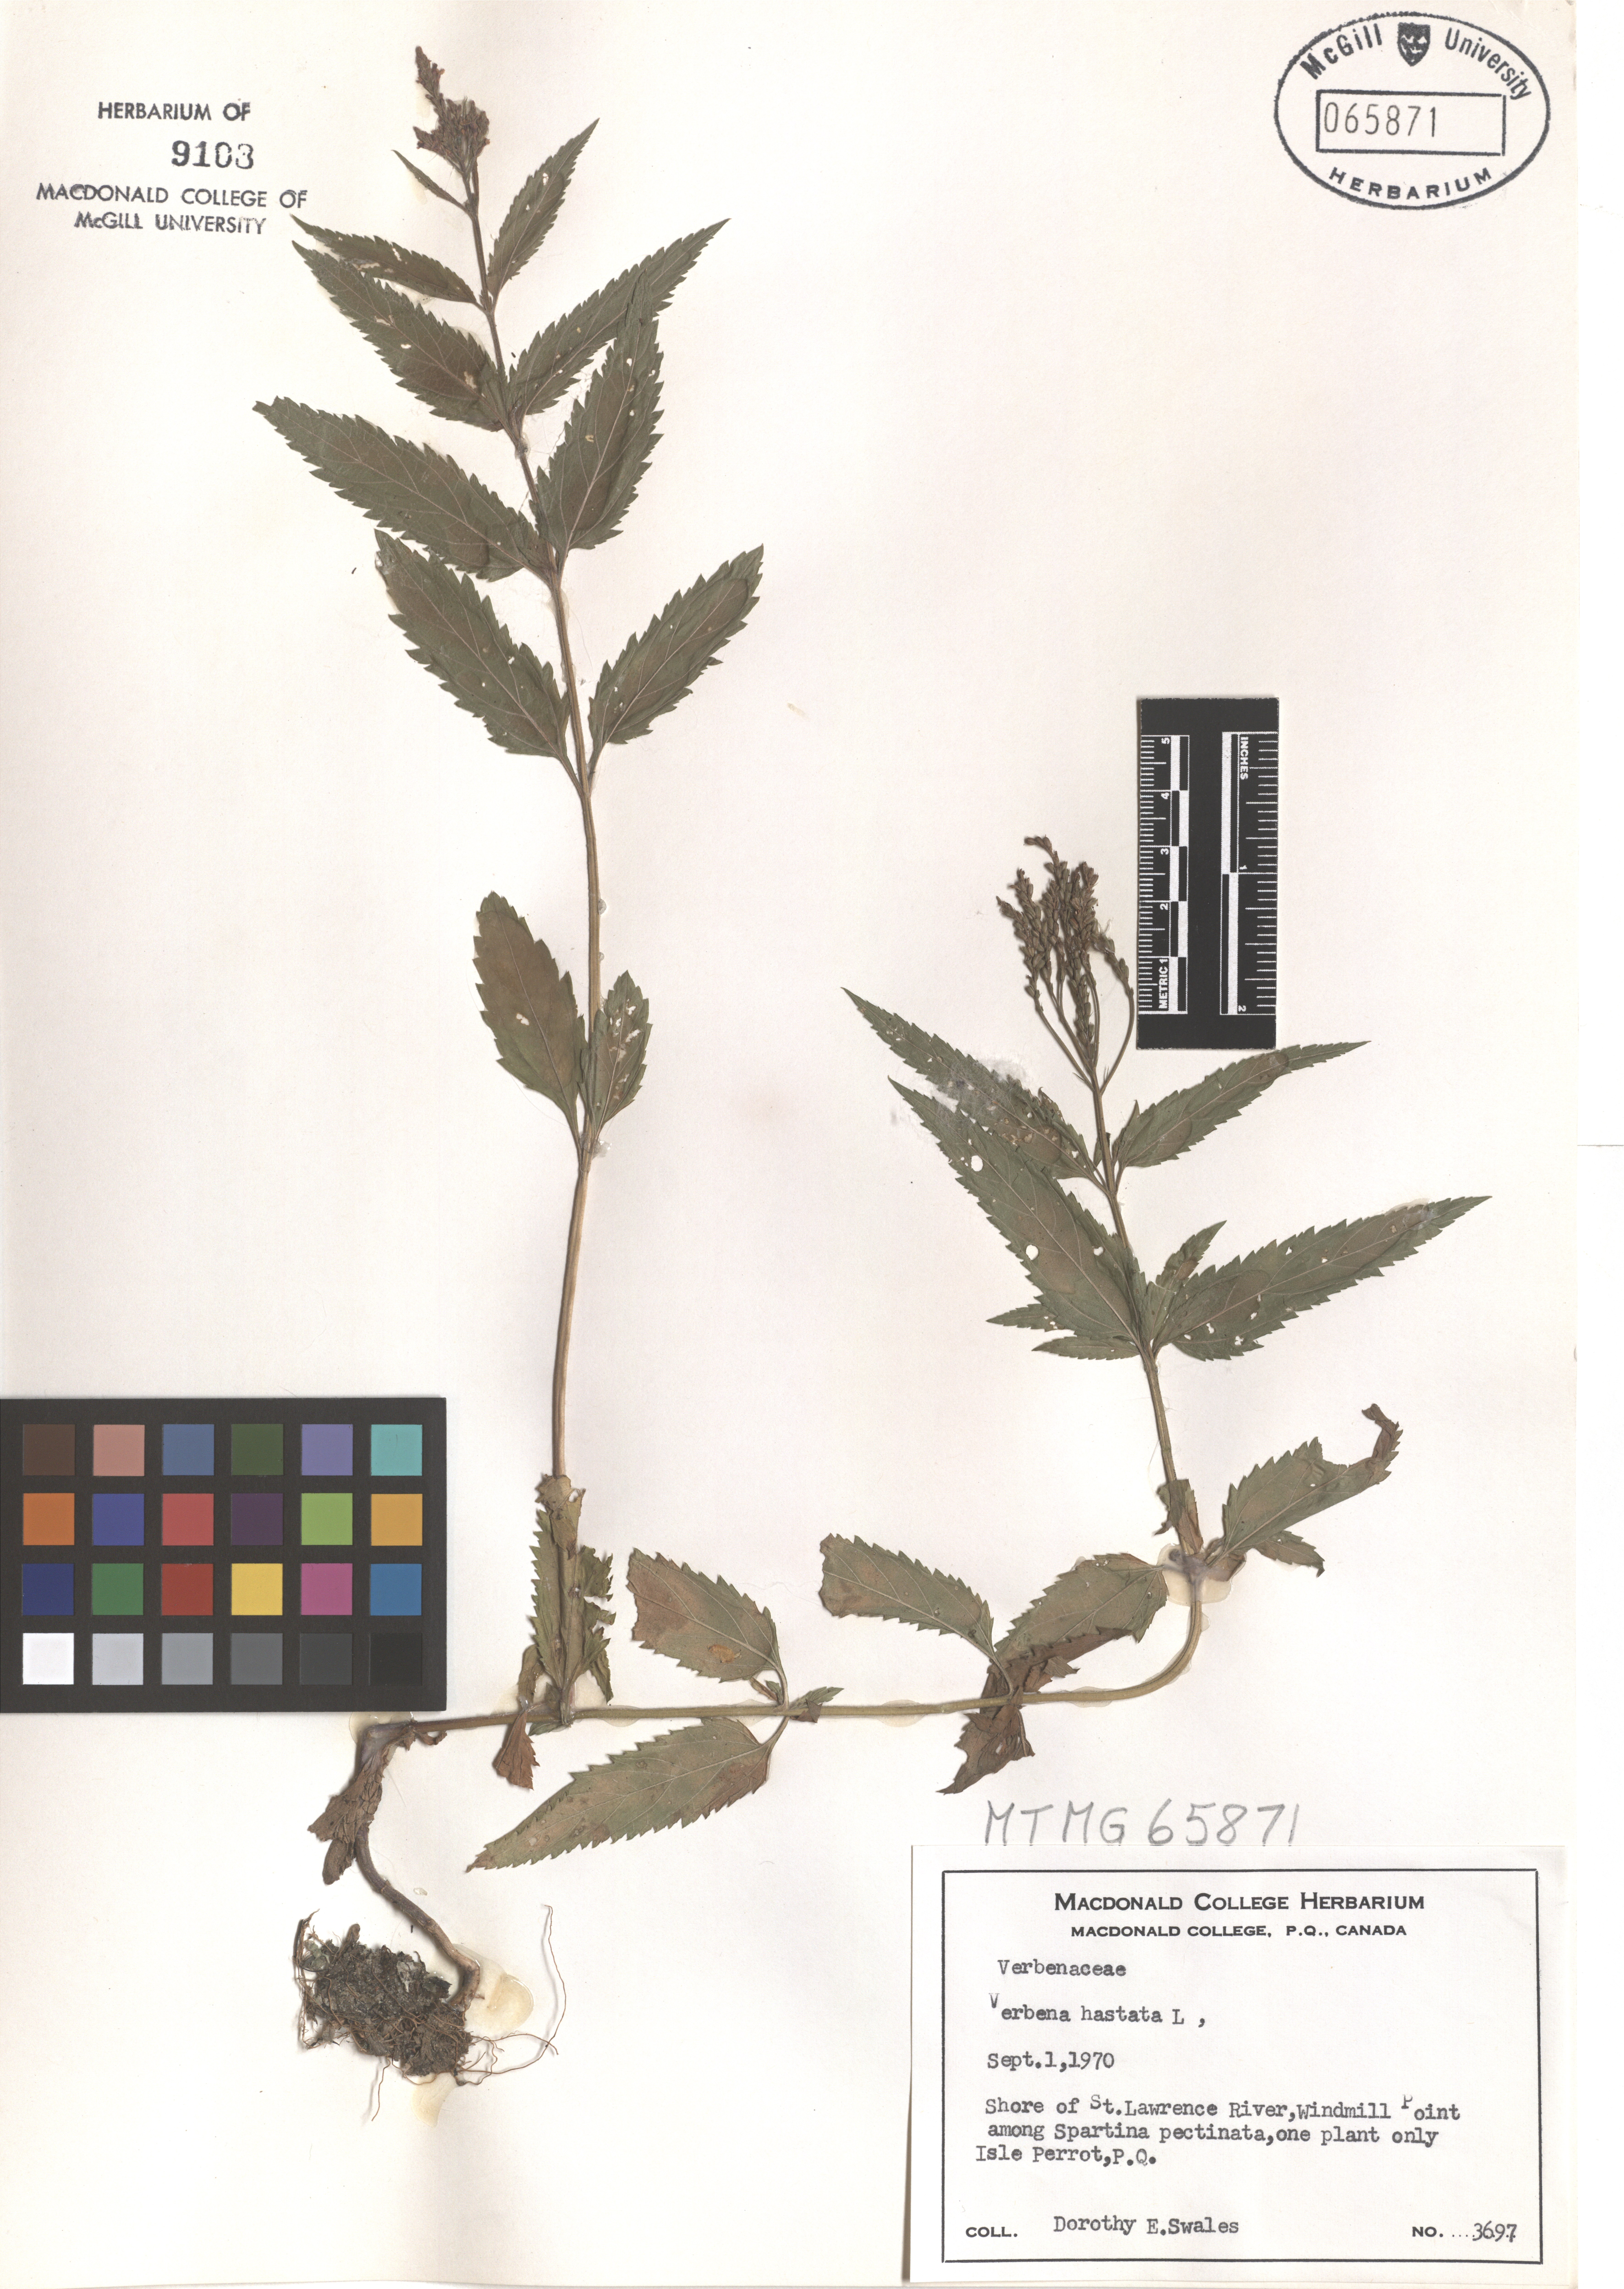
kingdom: Plantae
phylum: Tracheophyta
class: Magnoliopsida
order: Lamiales
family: Verbenaceae
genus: Verbena
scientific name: Verbena hastata
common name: American blue vervain
